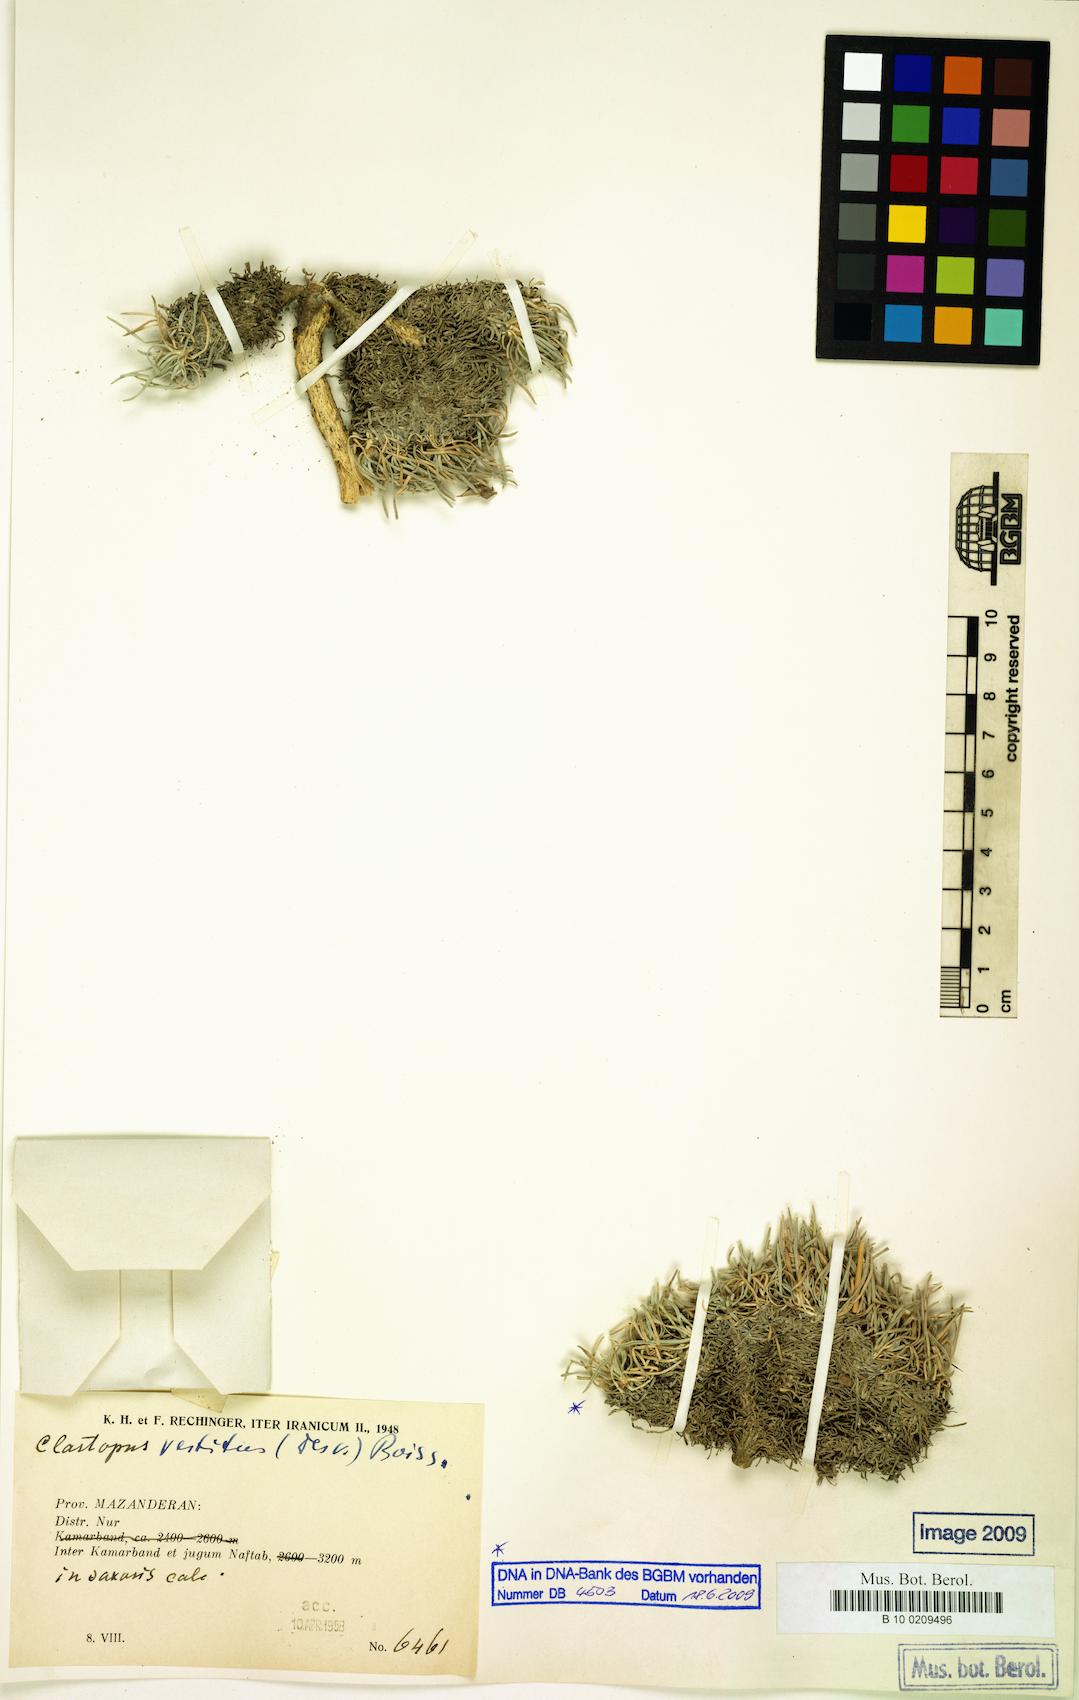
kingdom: Plantae
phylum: Tracheophyta
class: Magnoliopsida
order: Brassicales
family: Brassicaceae
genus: Clastopus
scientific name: Clastopus vestitus
